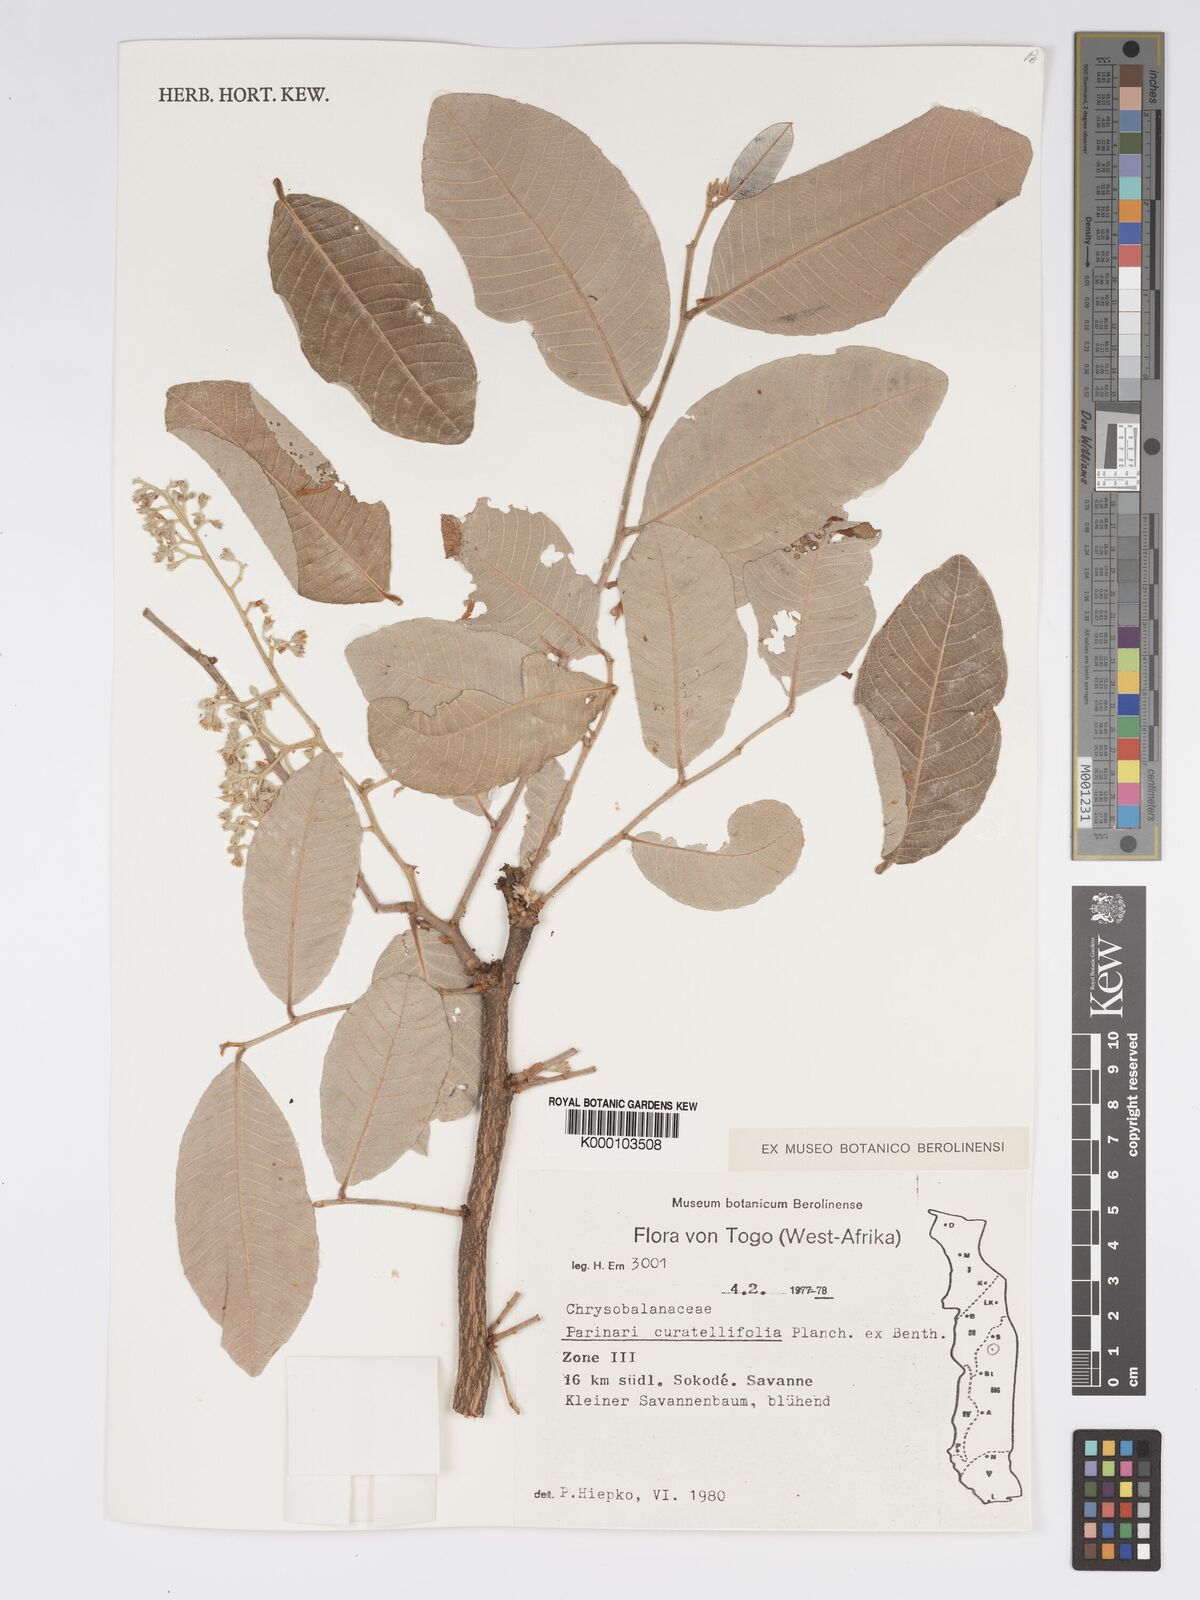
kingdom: Plantae
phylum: Tracheophyta
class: Magnoliopsida
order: Malpighiales
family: Chrysobalanaceae
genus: Parinari
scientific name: Parinari curatellifolia
